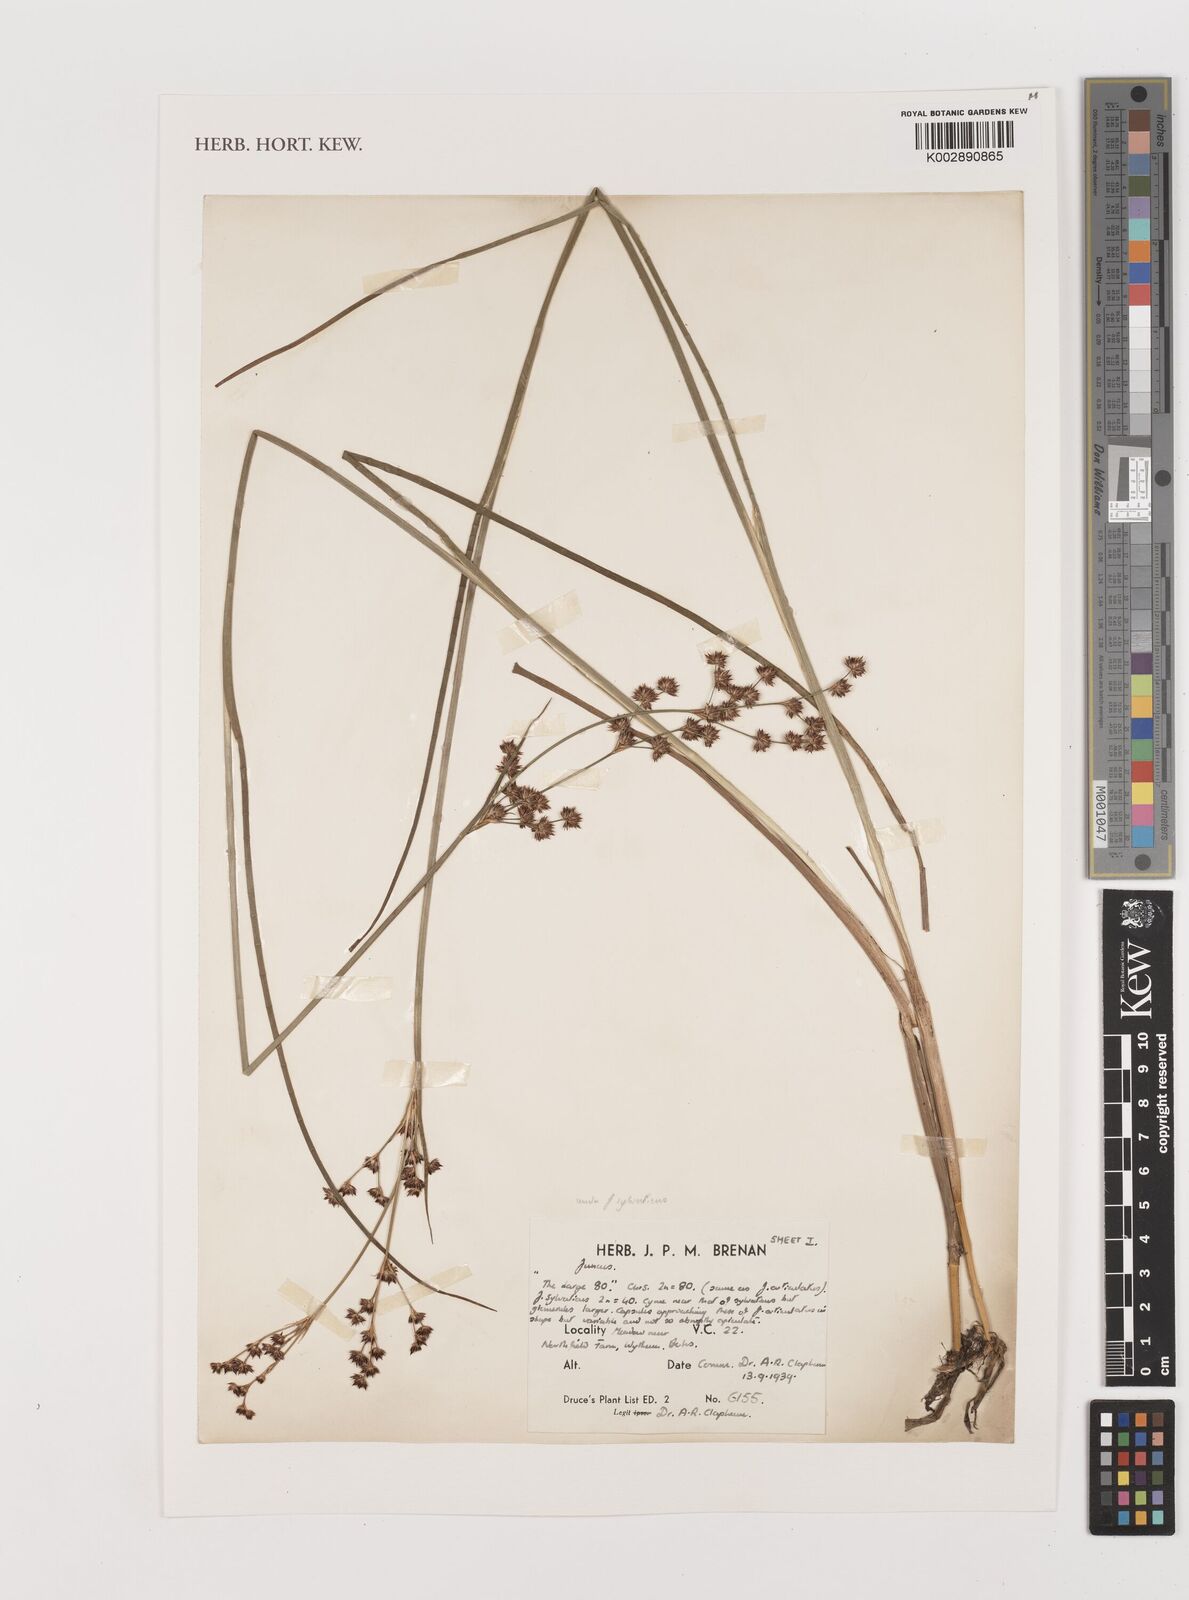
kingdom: Plantae
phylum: Tracheophyta
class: Liliopsida
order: Poales
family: Juncaceae
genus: Juncus
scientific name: Juncus
